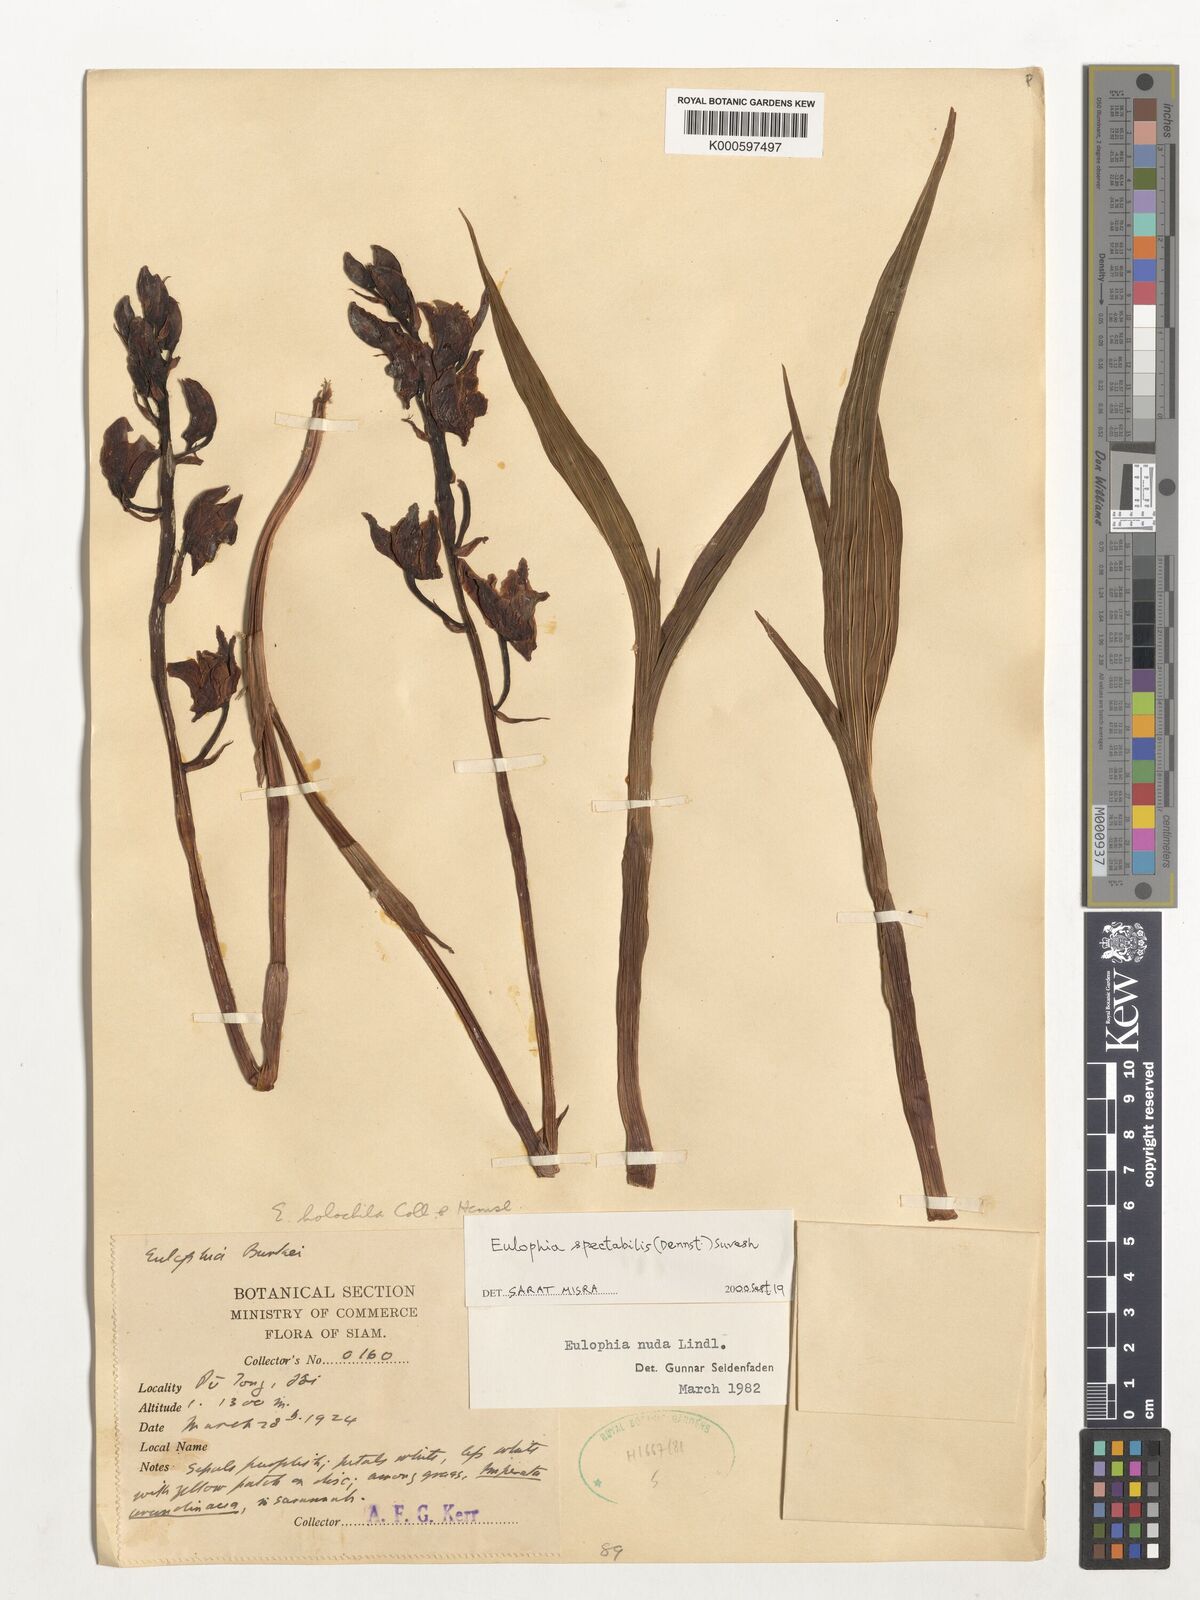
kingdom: Plantae
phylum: Tracheophyta
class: Liliopsida
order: Asparagales
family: Orchidaceae
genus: Eulophia
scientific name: Eulophia nuda
